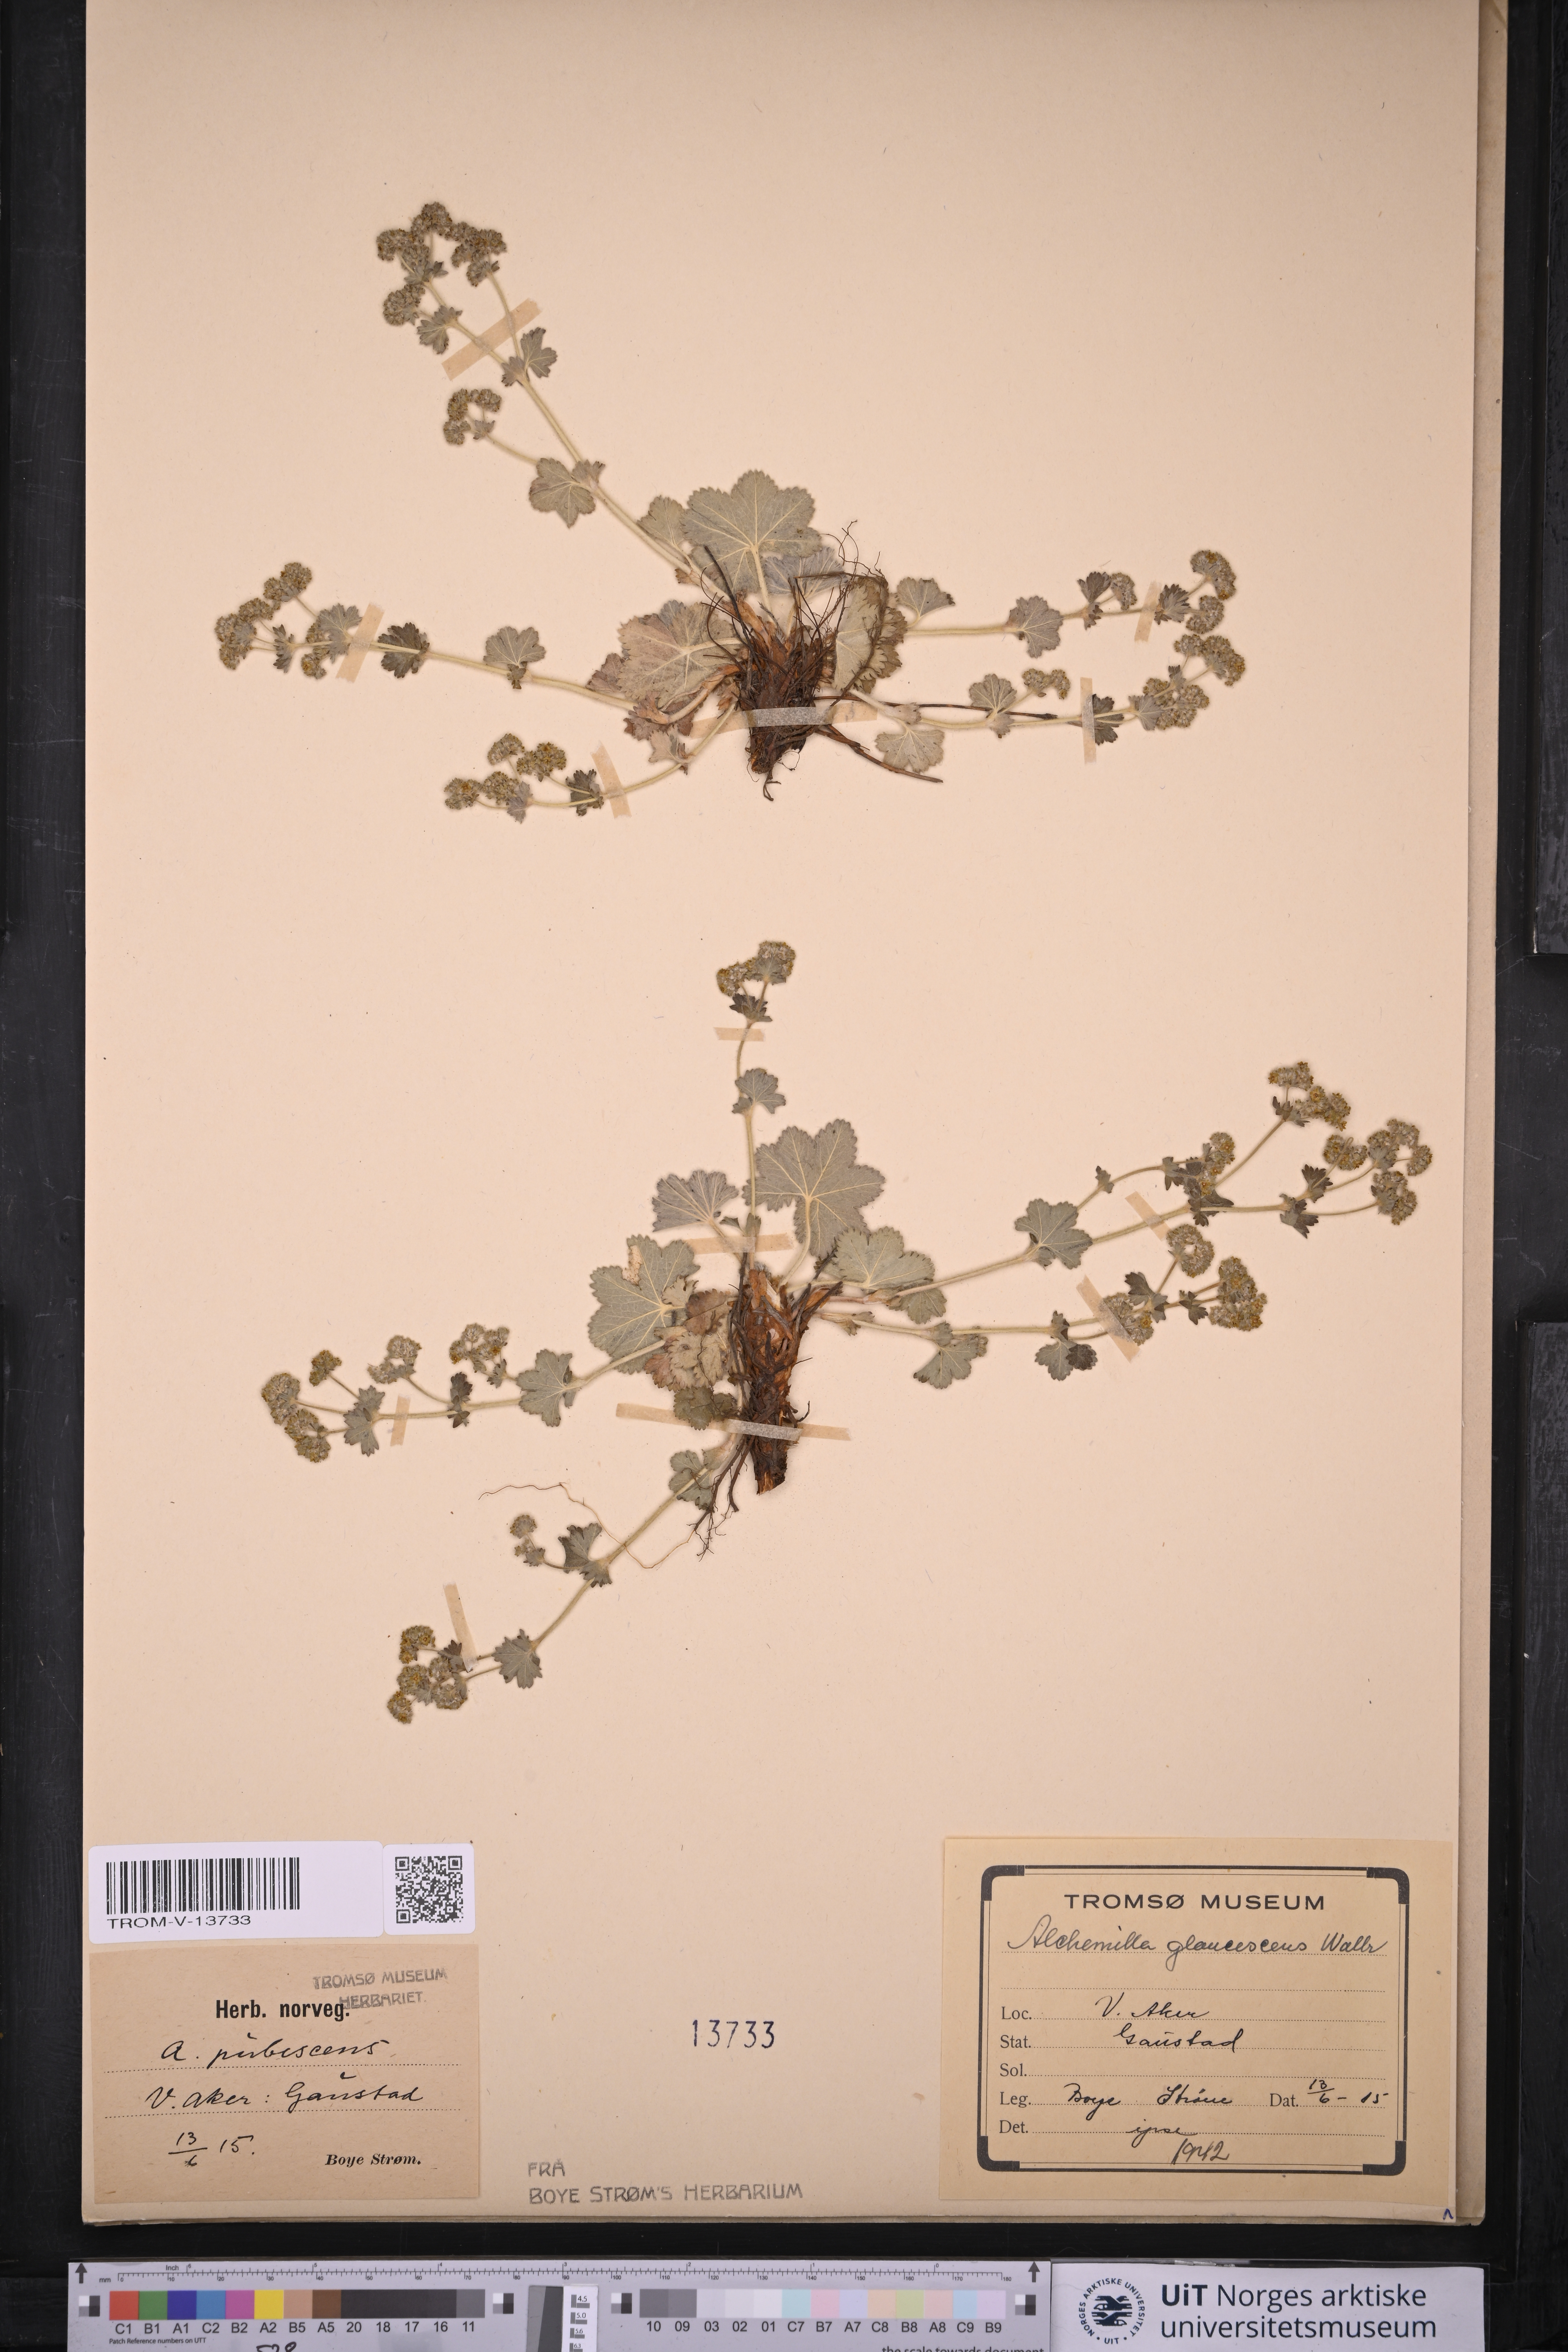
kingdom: Plantae
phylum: Tracheophyta
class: Magnoliopsida
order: Rosales
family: Rosaceae
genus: Alchemilla
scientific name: Alchemilla glaucescens
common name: Silky lady's mantle
